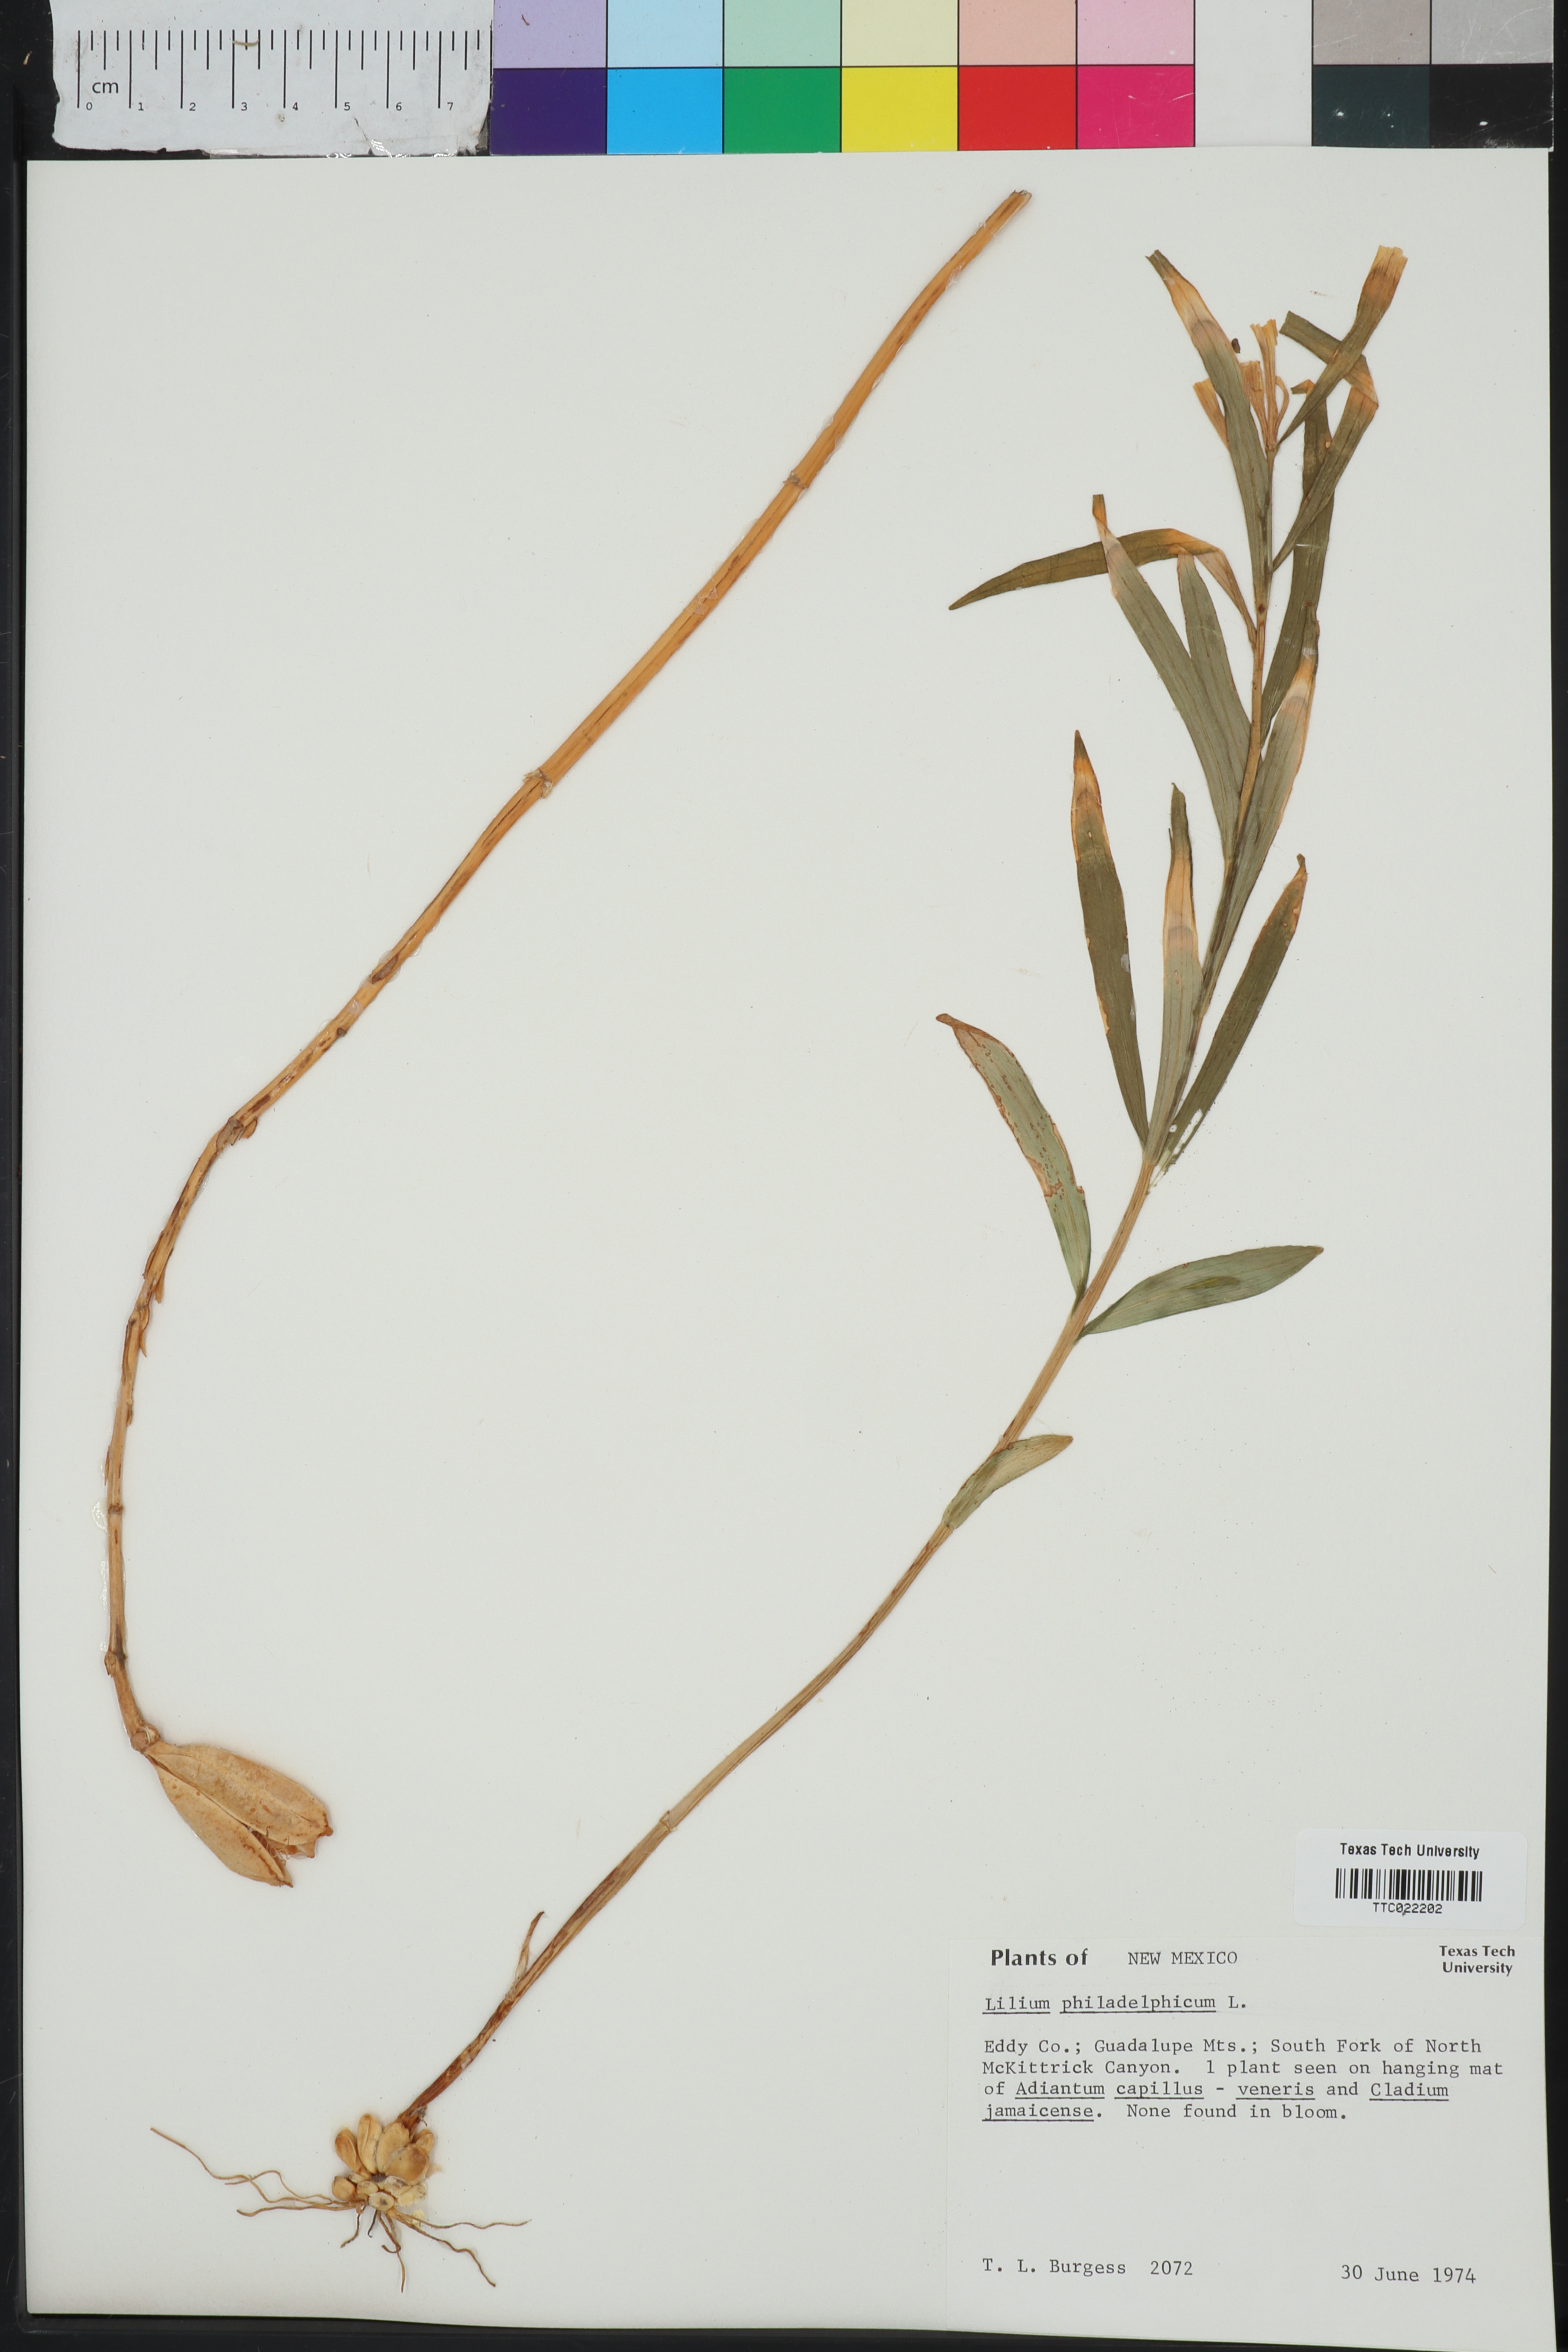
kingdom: Plantae
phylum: Tracheophyta
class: Liliopsida
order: Liliales
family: Liliaceae
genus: Lilium
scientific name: Lilium philadelphicum
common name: Red lily
